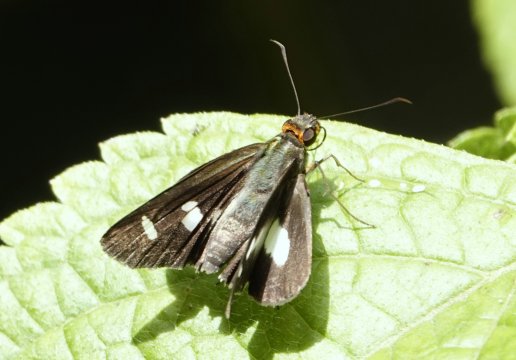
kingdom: Animalia
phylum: Arthropoda
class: Insecta
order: Lepidoptera
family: Hesperiidae
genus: Cobalus
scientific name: Cobalus calvina
